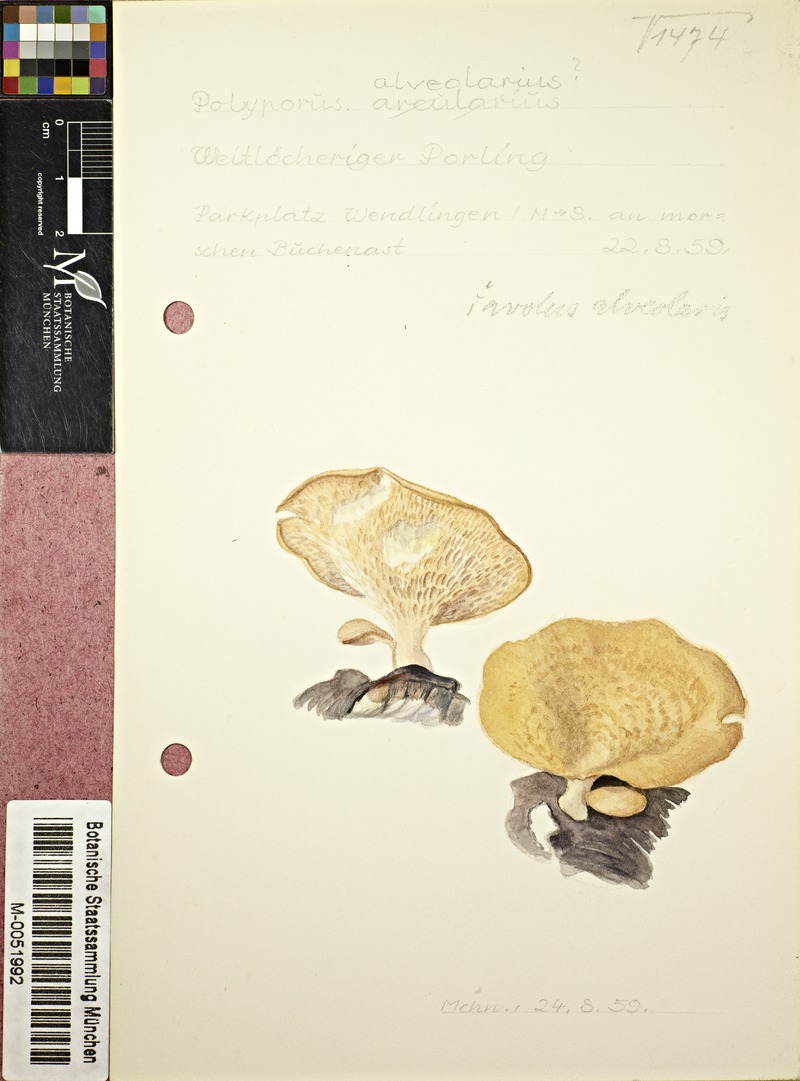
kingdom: Fungi
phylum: Basidiomycota
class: Agaricomycetes
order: Polyporales
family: Polyporaceae
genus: Lentinus
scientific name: Lentinus arcularius
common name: Spring polypore
